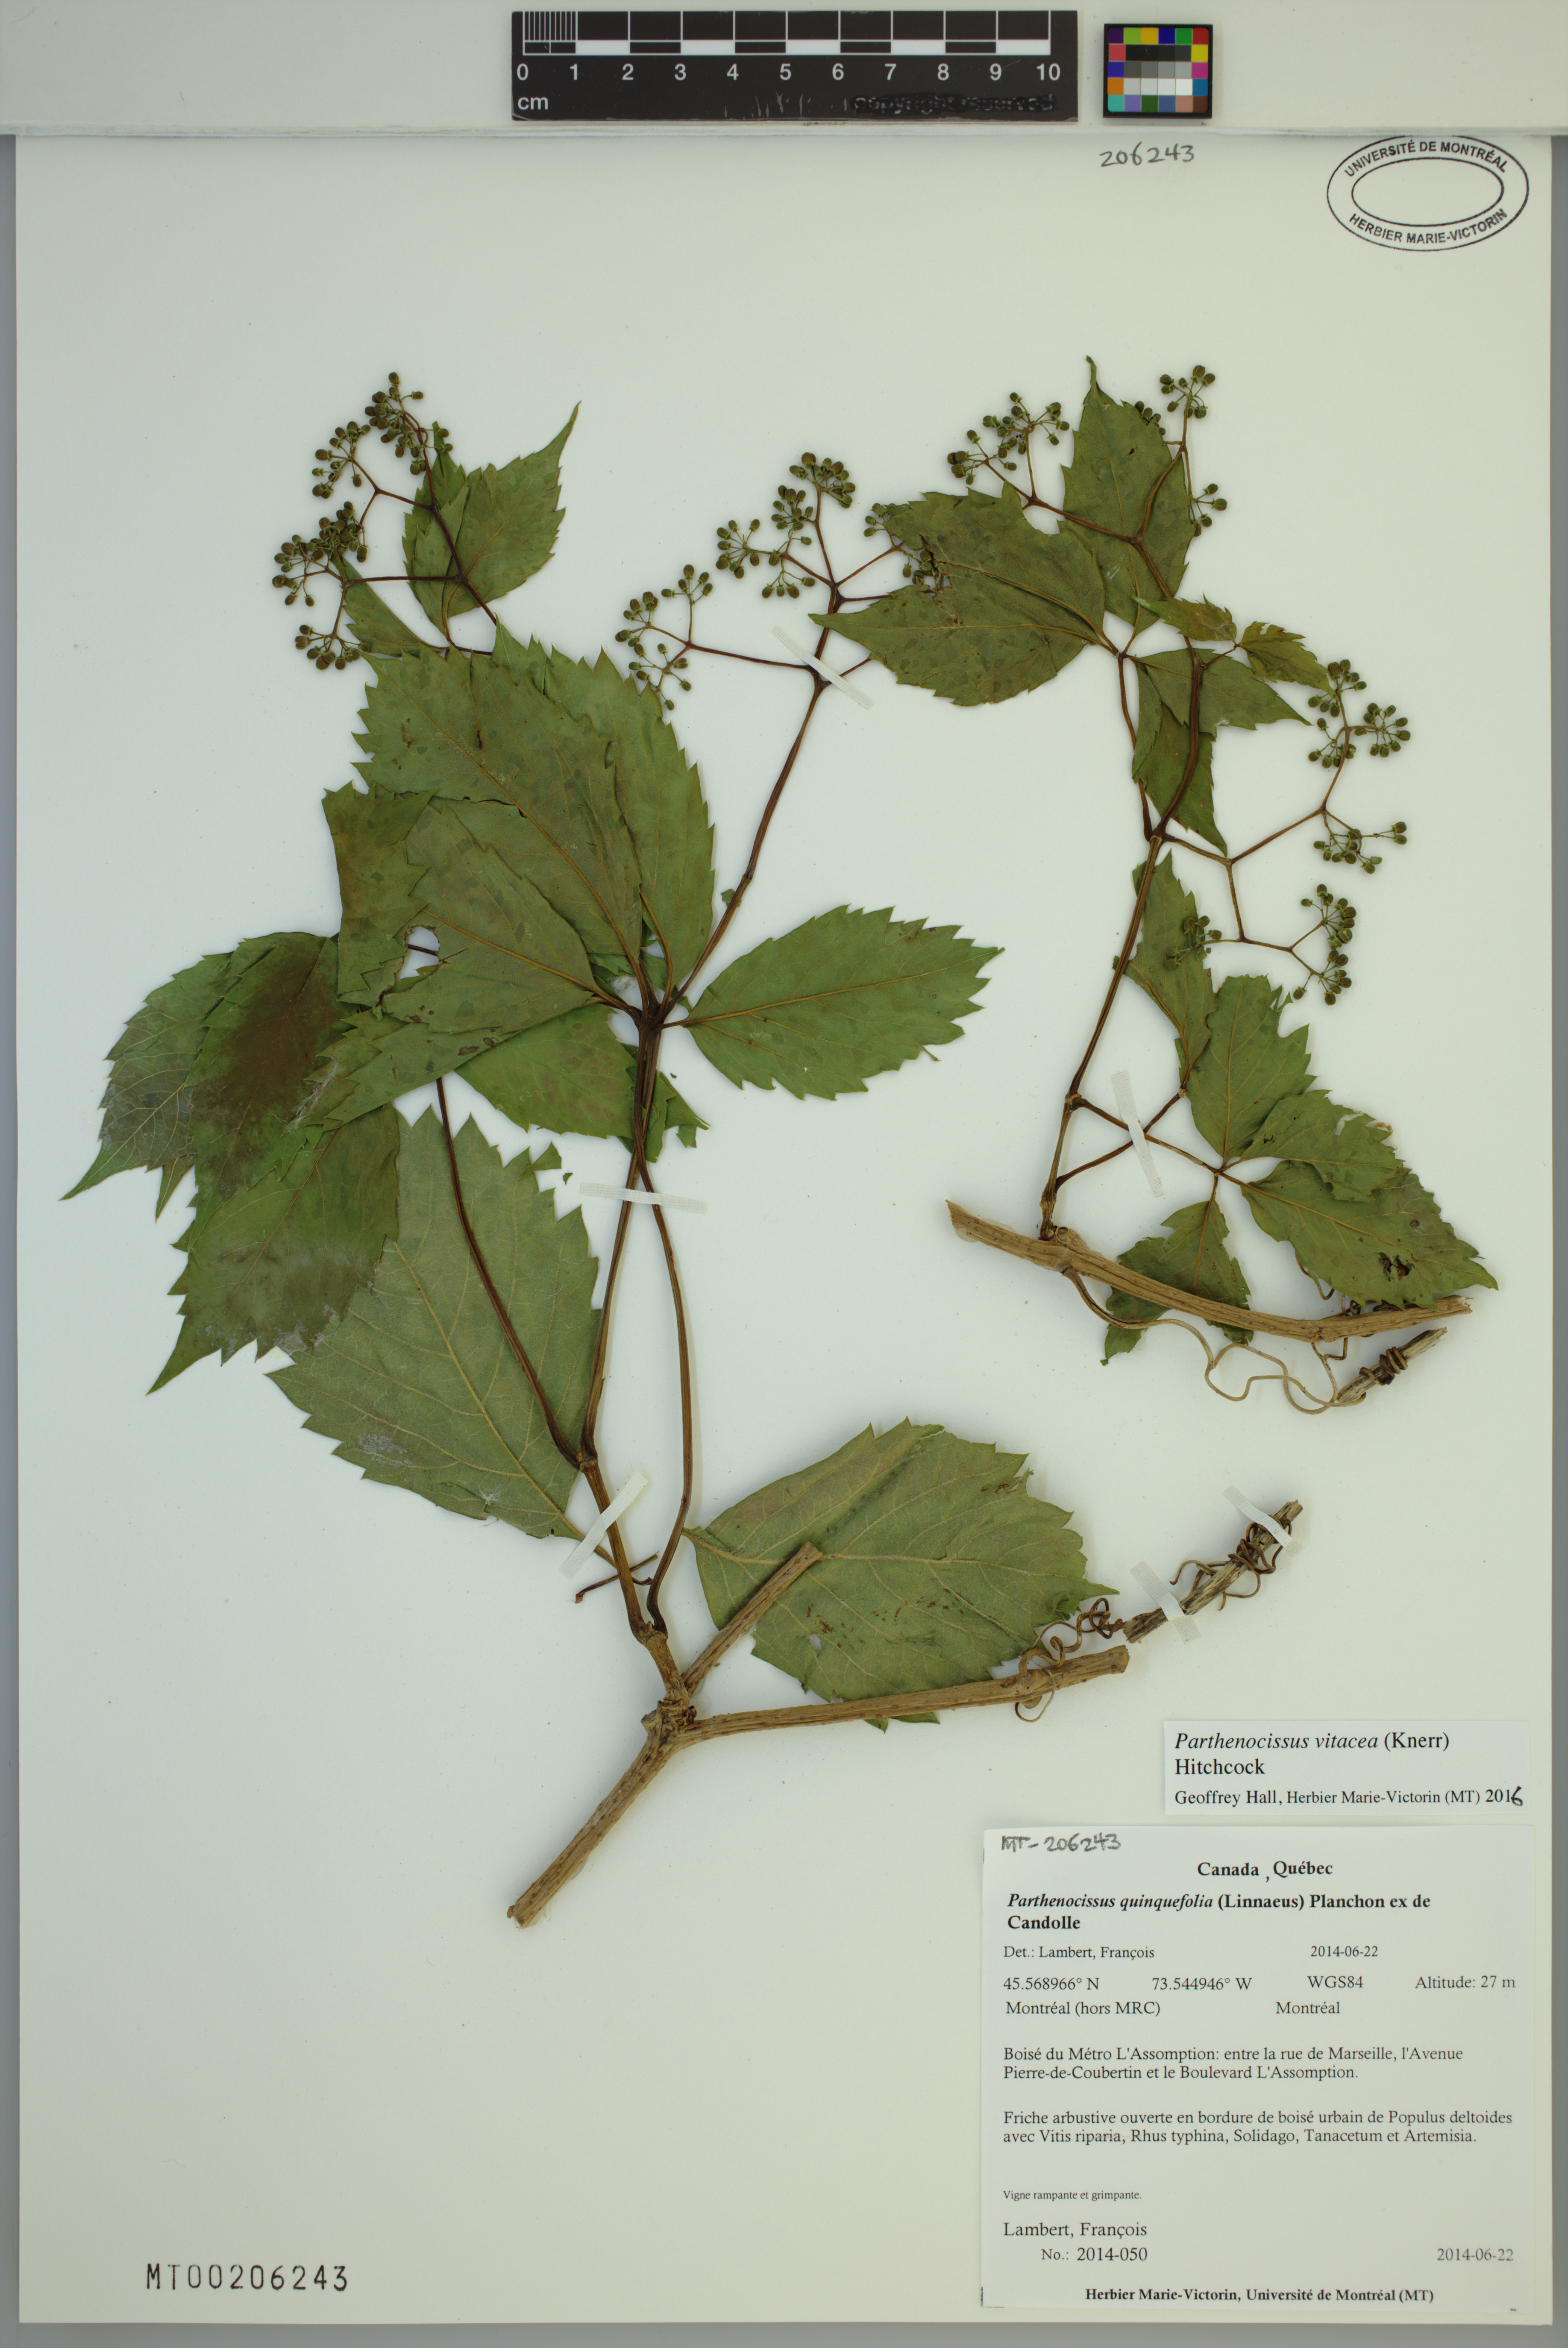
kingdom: Plantae
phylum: Tracheophyta
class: Magnoliopsida
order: Vitales
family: Vitaceae
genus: Parthenocissus
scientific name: Parthenocissus inserta
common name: False virginia-creeper
